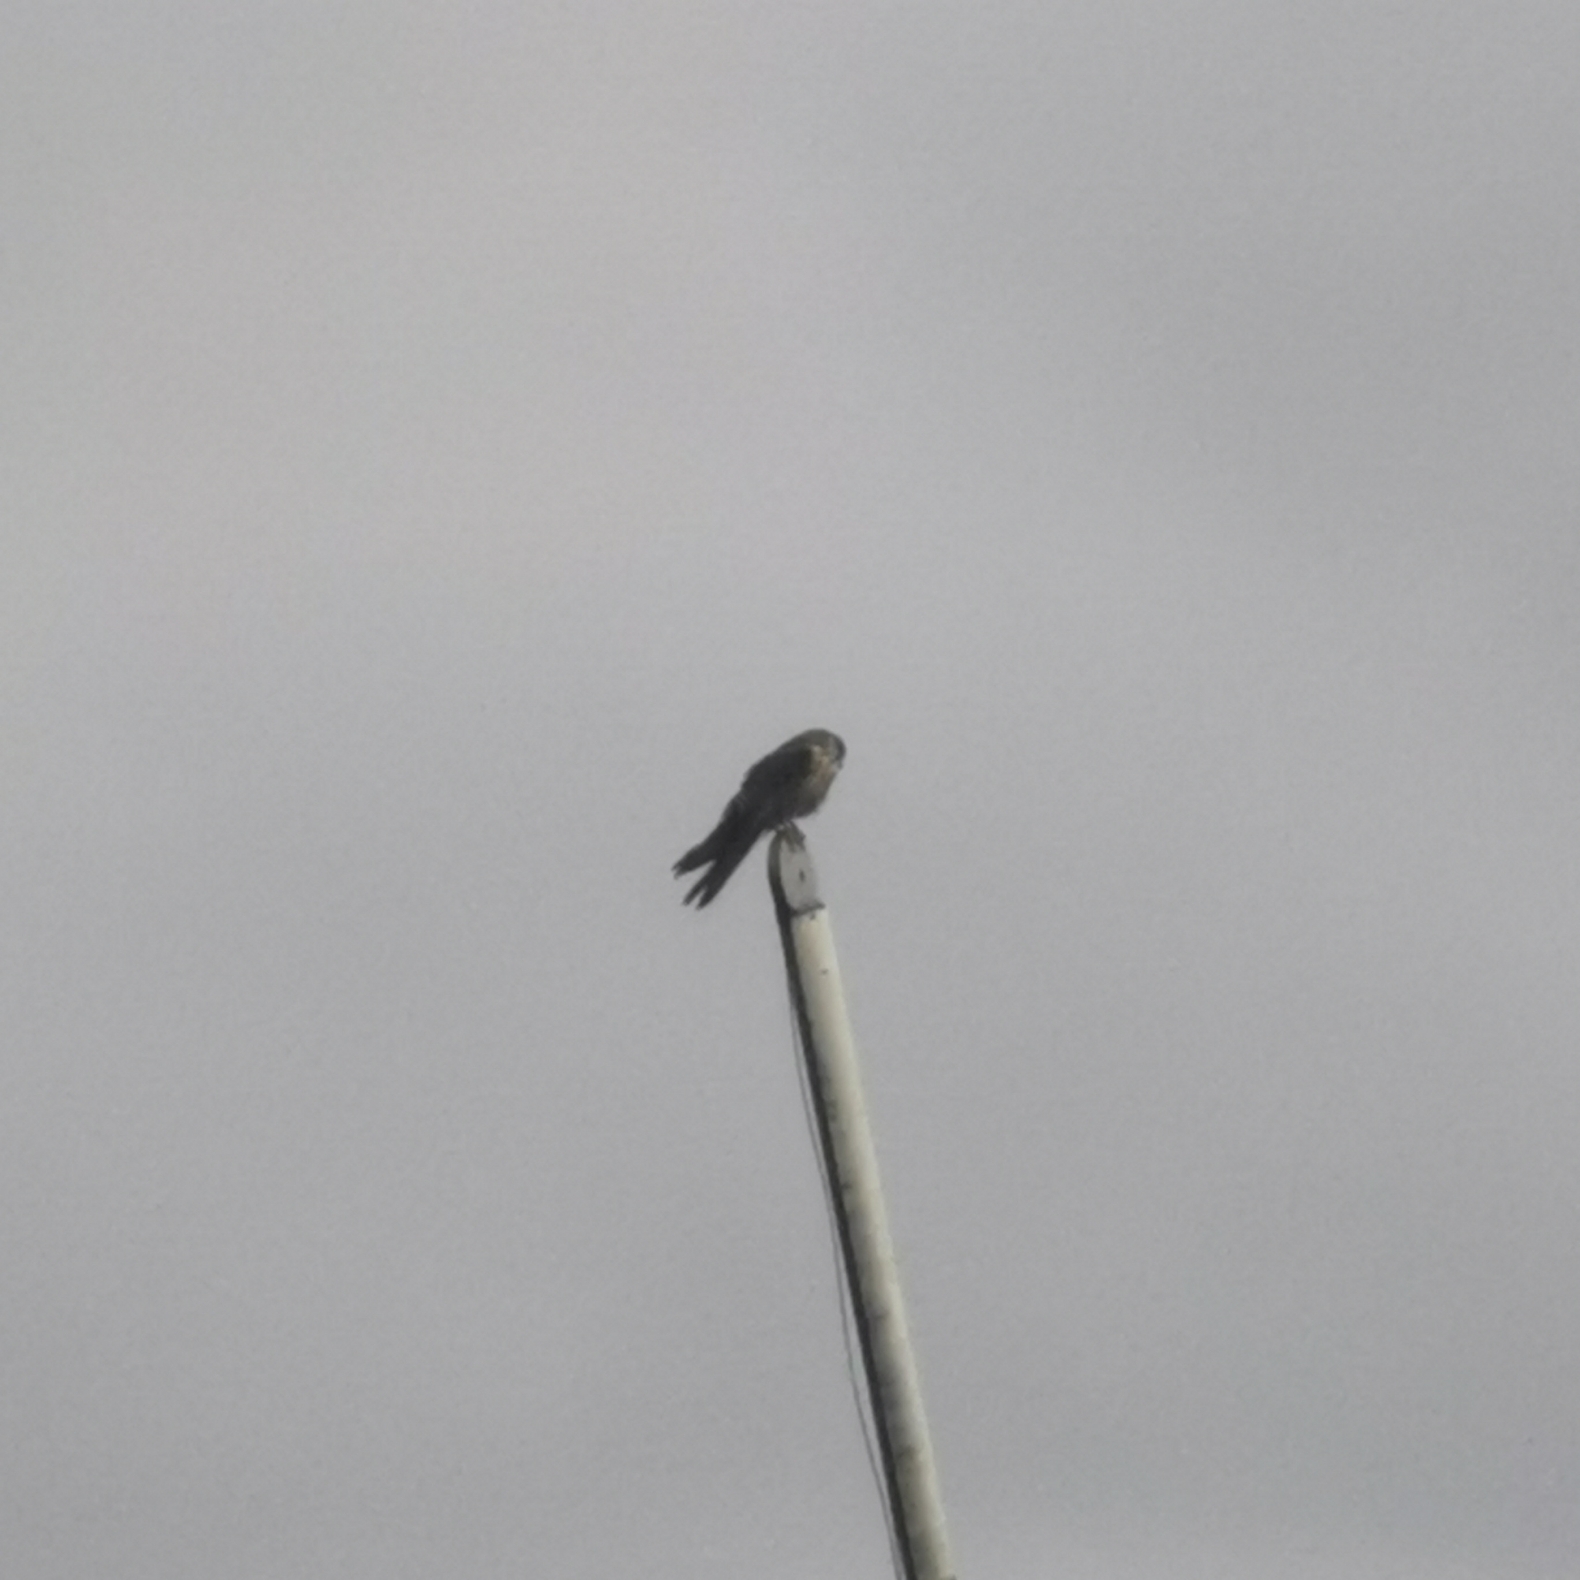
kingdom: Animalia
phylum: Chordata
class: Aves
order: Falconiformes
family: Falconidae
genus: Falco
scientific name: Falco tinnunculus
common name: Tårnfalk
